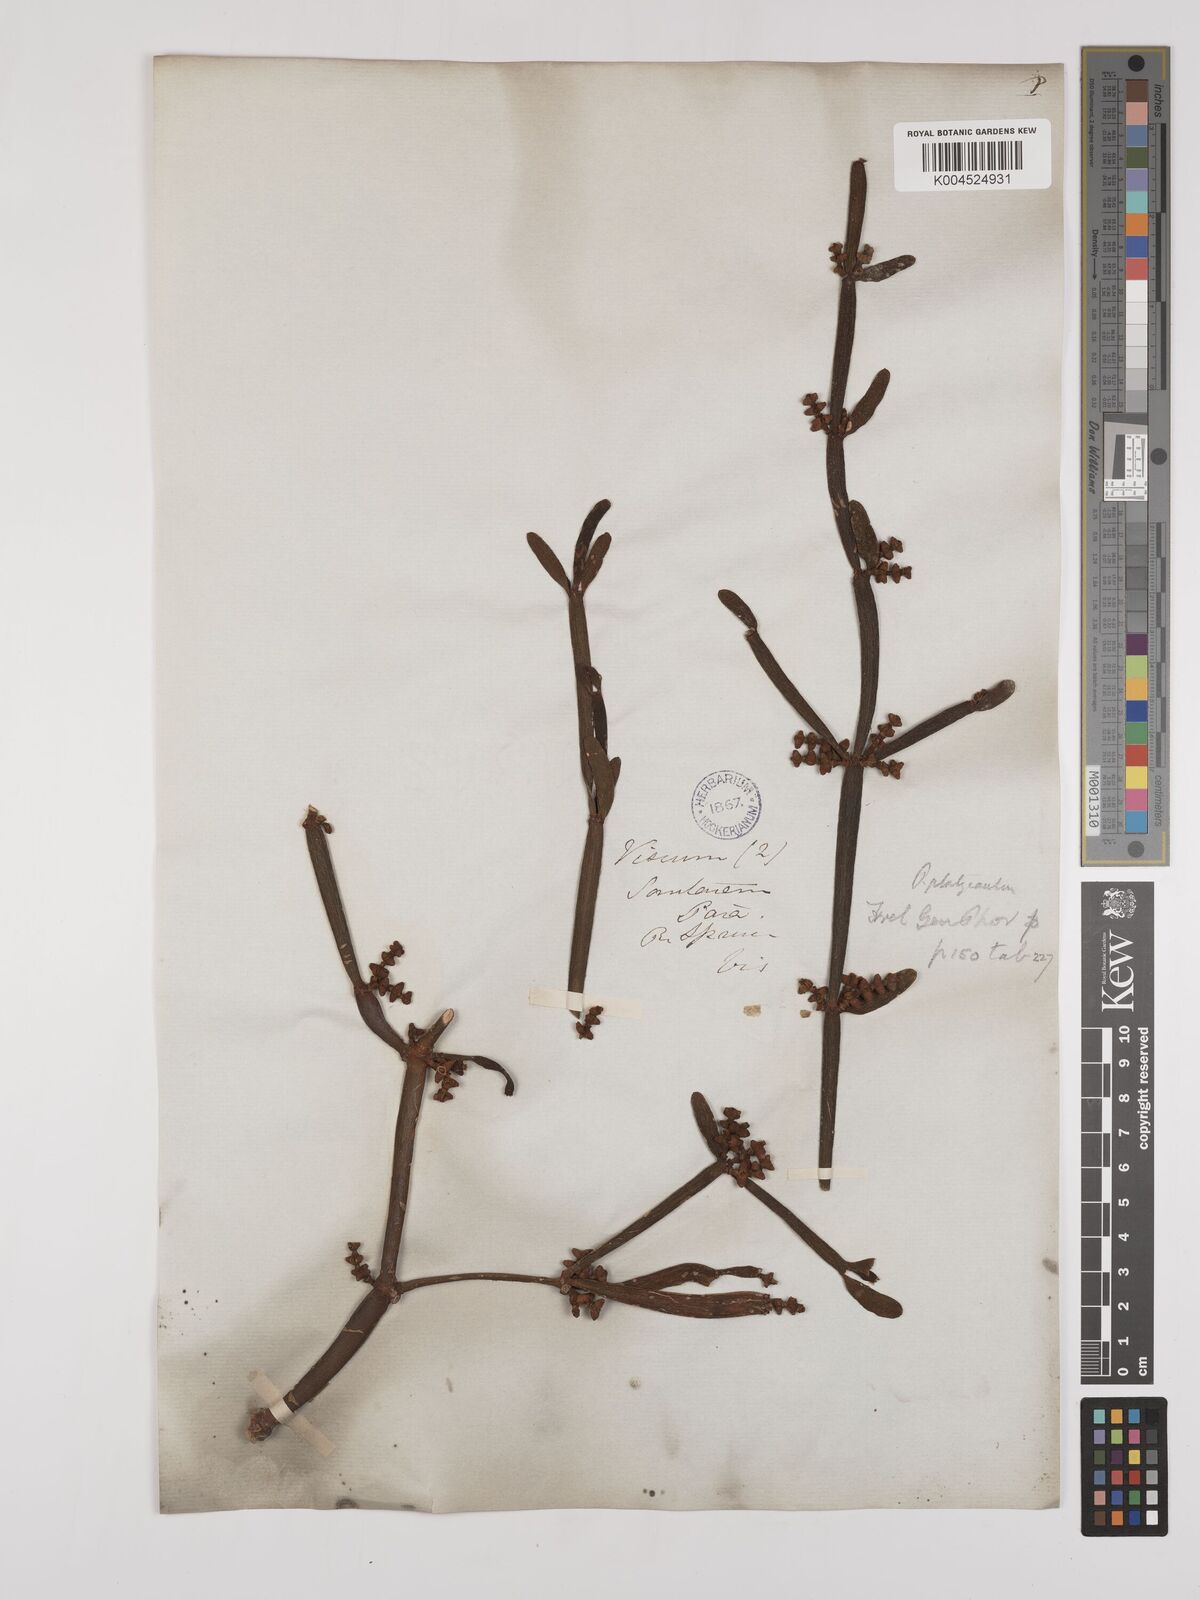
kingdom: Plantae
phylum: Tracheophyta
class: Magnoliopsida
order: Santalales
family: Viscaceae
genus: Phoradendron
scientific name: Phoradendron planiphyllum
